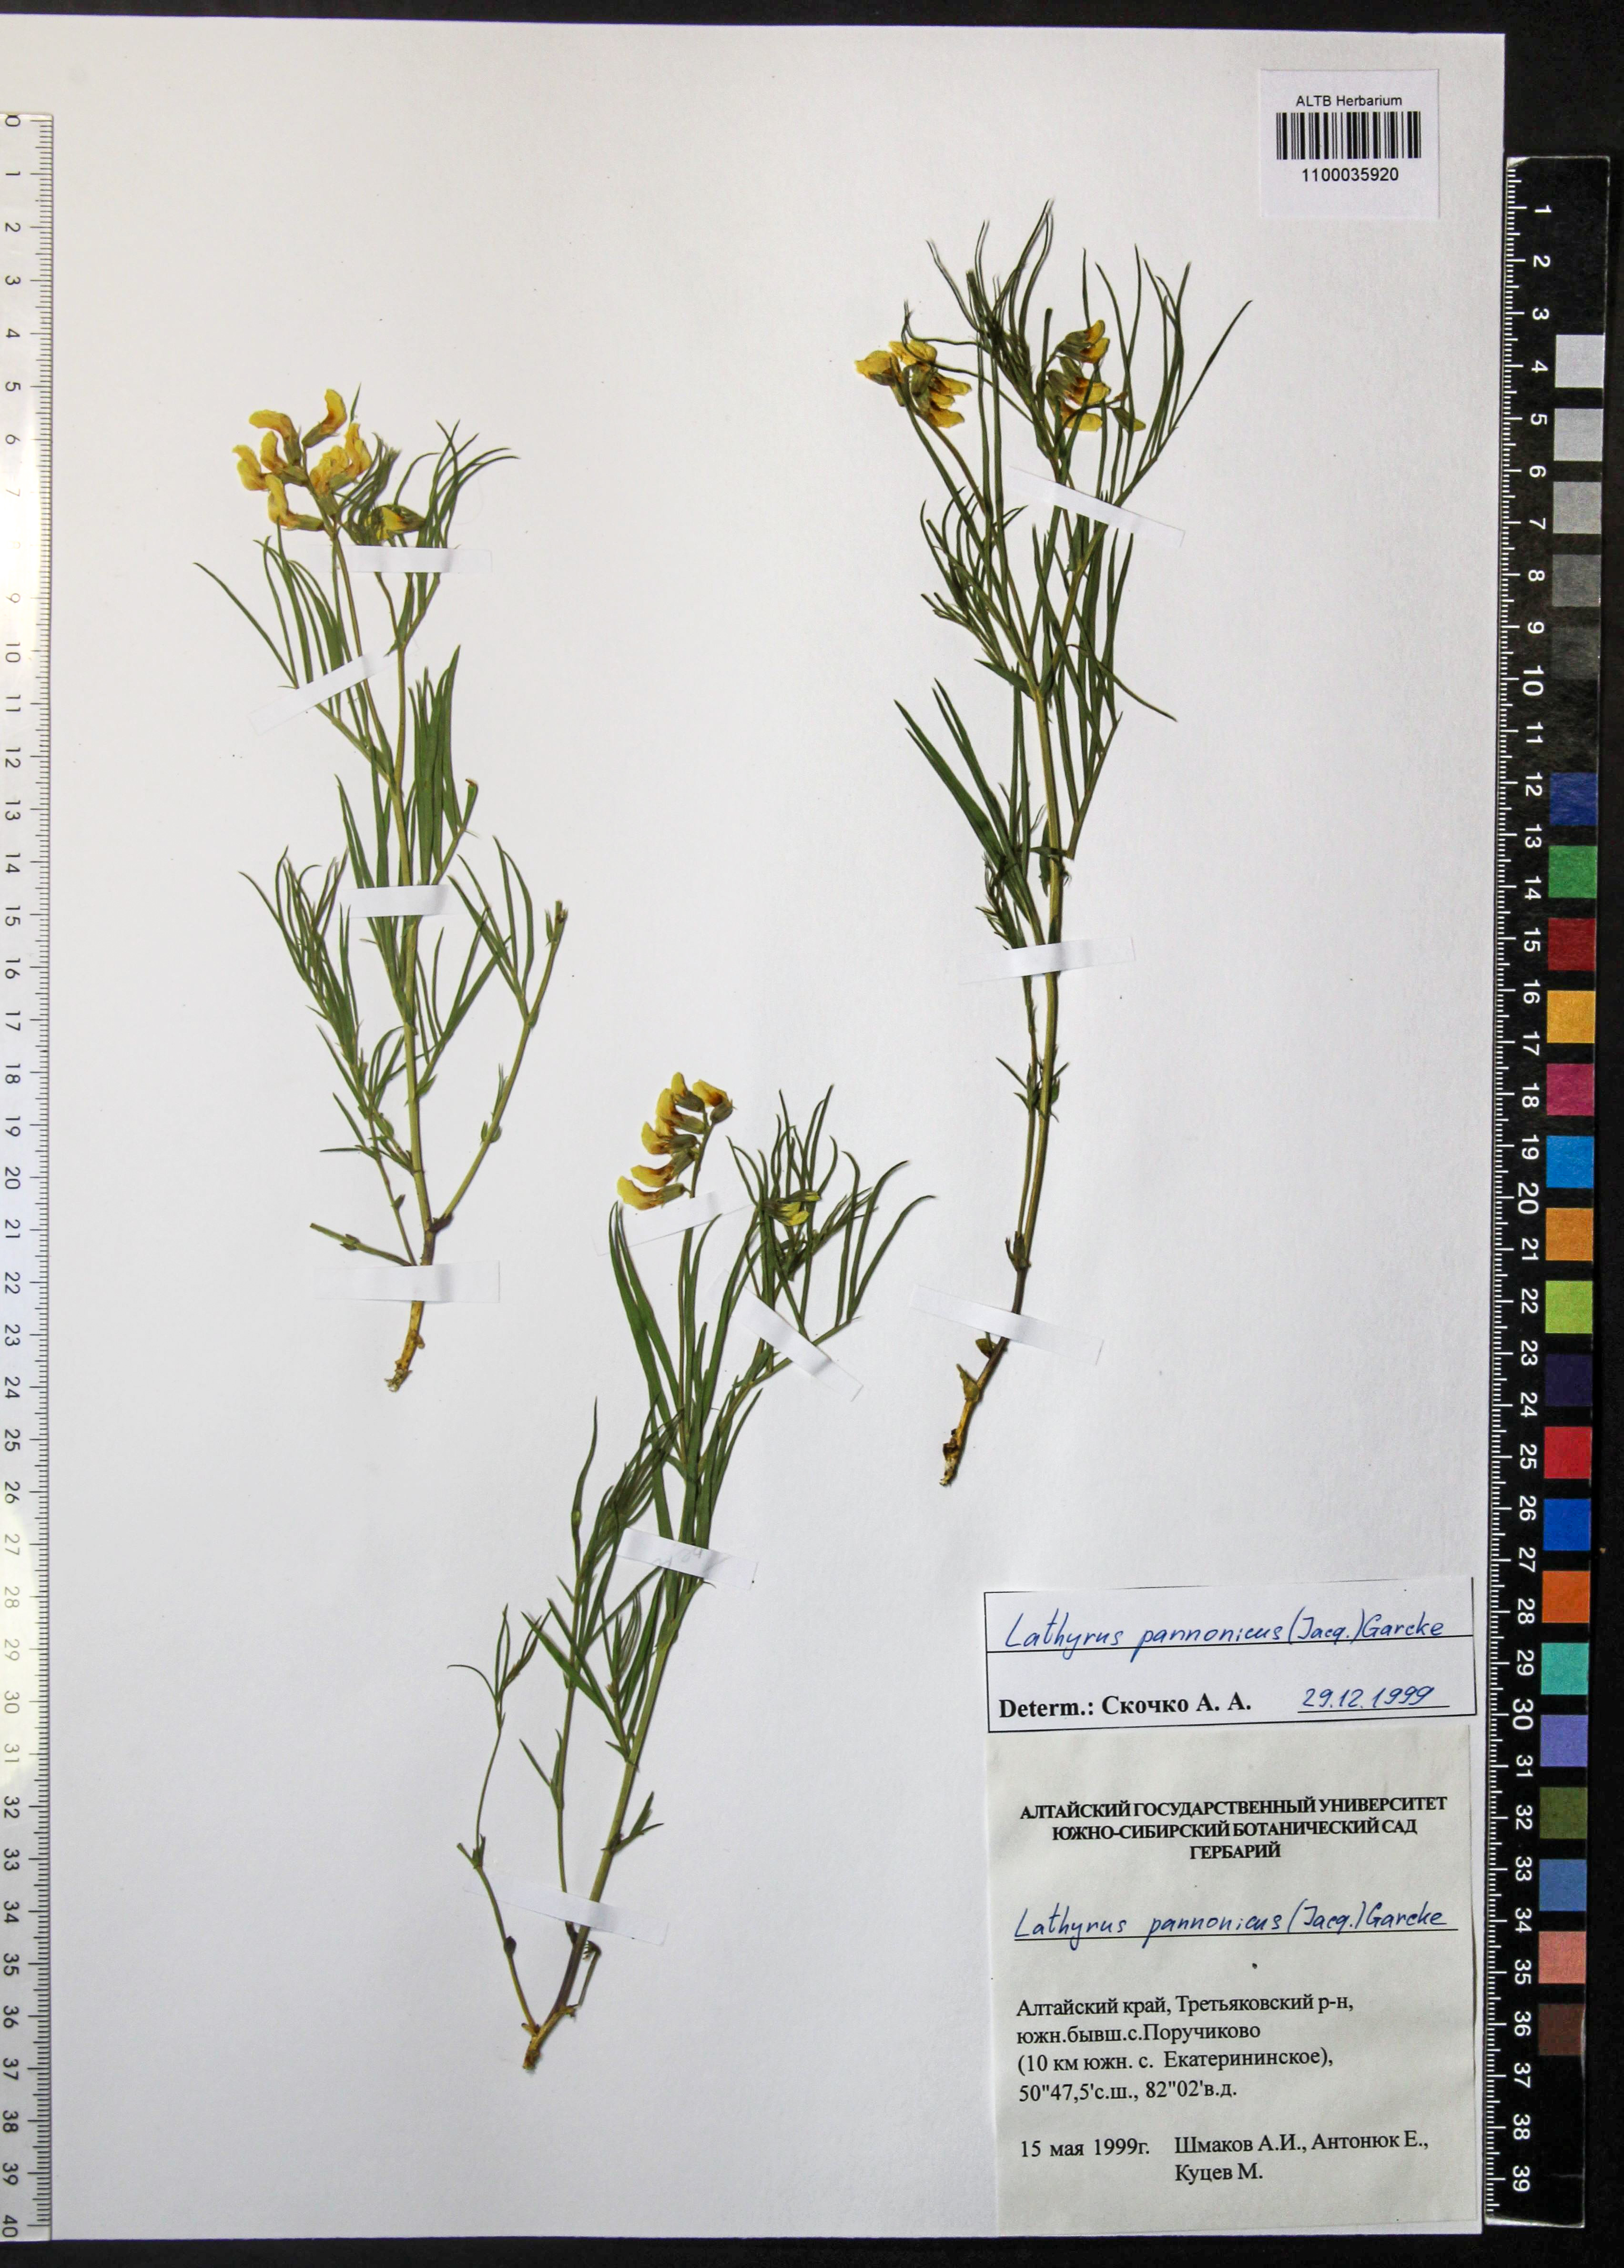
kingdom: Plantae
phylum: Tracheophyta
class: Magnoliopsida
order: Fabales
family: Fabaceae
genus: Lathyrus
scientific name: Lathyrus pannonicus
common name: Pea
